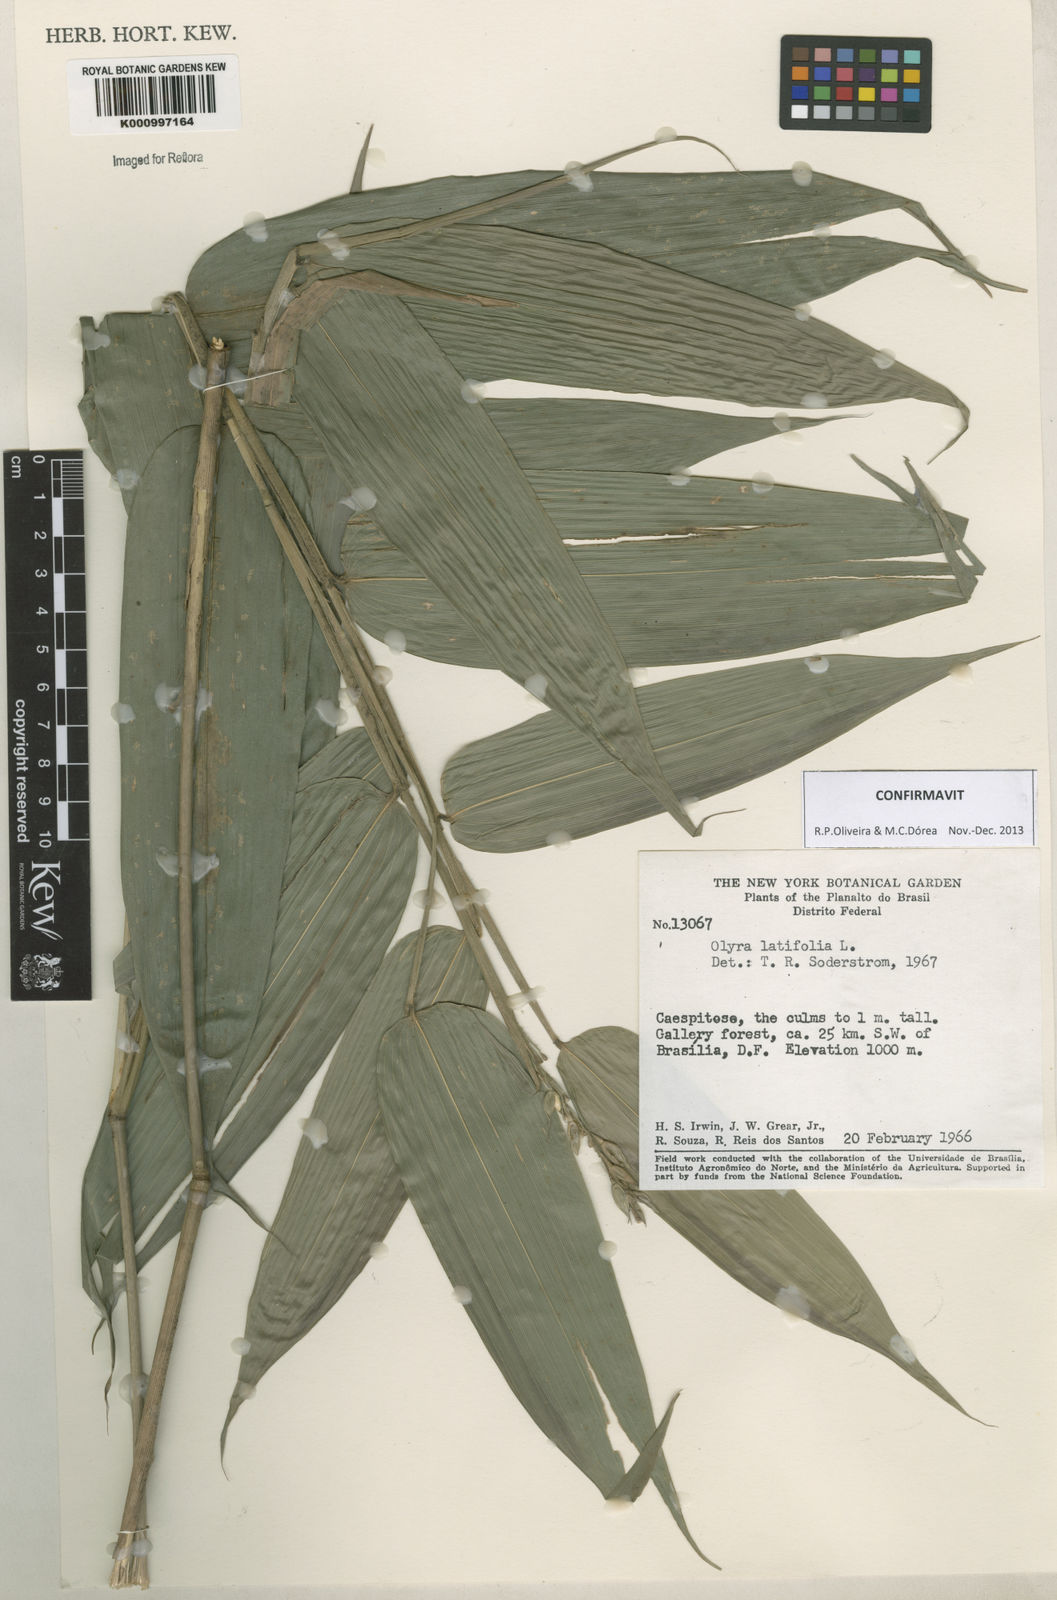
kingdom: Plantae
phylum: Tracheophyta
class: Liliopsida
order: Poales
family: Poaceae
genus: Olyra
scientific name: Olyra latifolia
